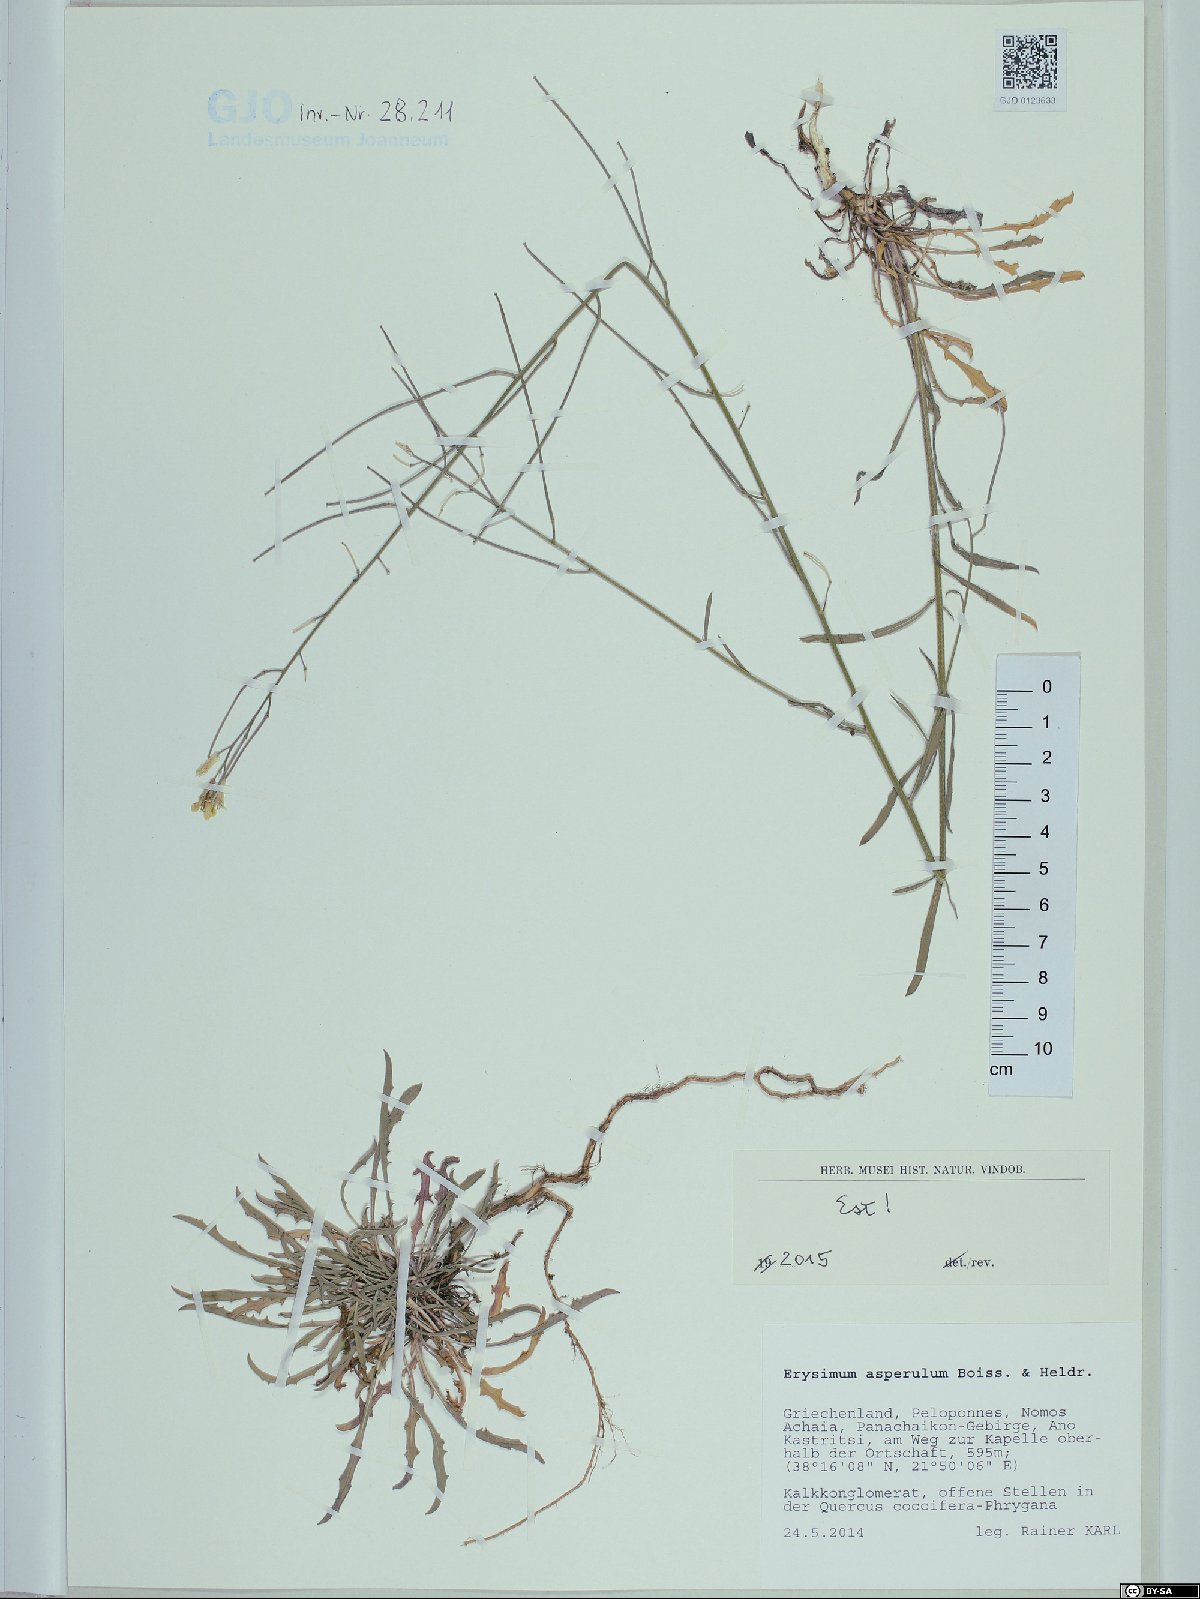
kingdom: Plantae
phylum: Tracheophyta
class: Magnoliopsida
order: Brassicales
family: Brassicaceae
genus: Erysimum
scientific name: Erysimum asperulum
